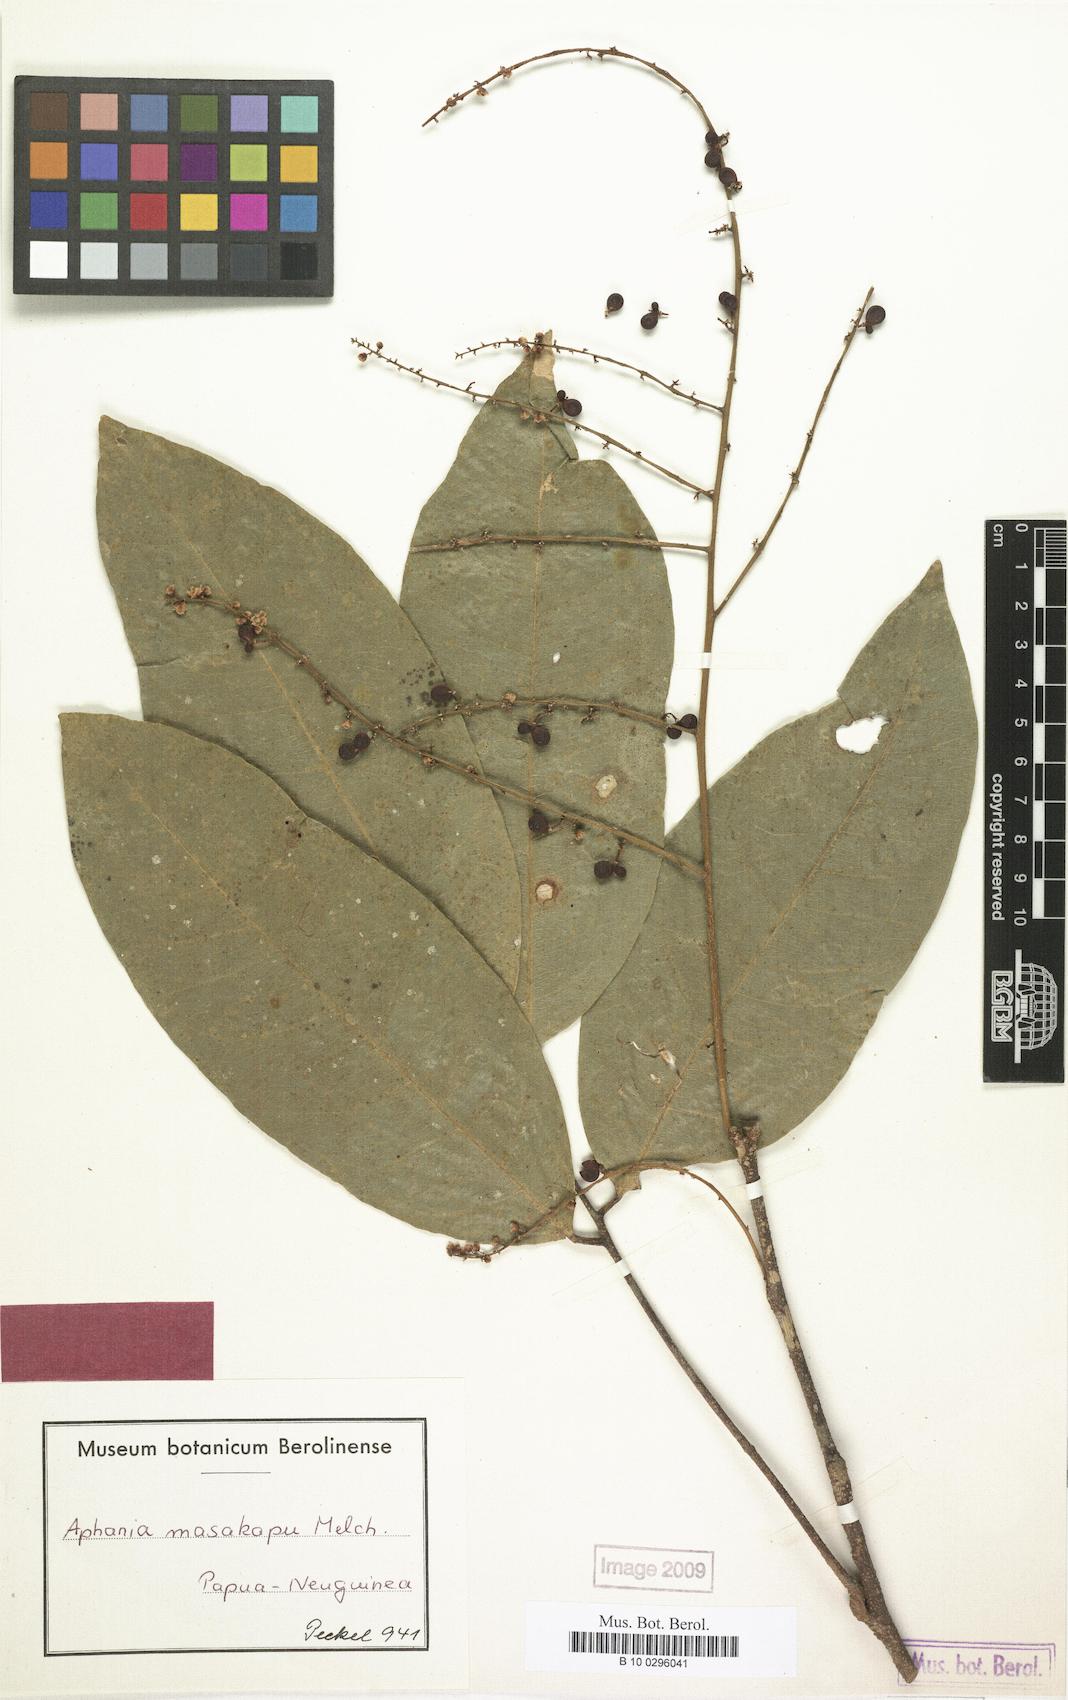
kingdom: Plantae
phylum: Tracheophyta
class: Magnoliopsida
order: Sapindales
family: Sapindaceae
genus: Lepisanthes
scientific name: Lepisanthes senegalensis
